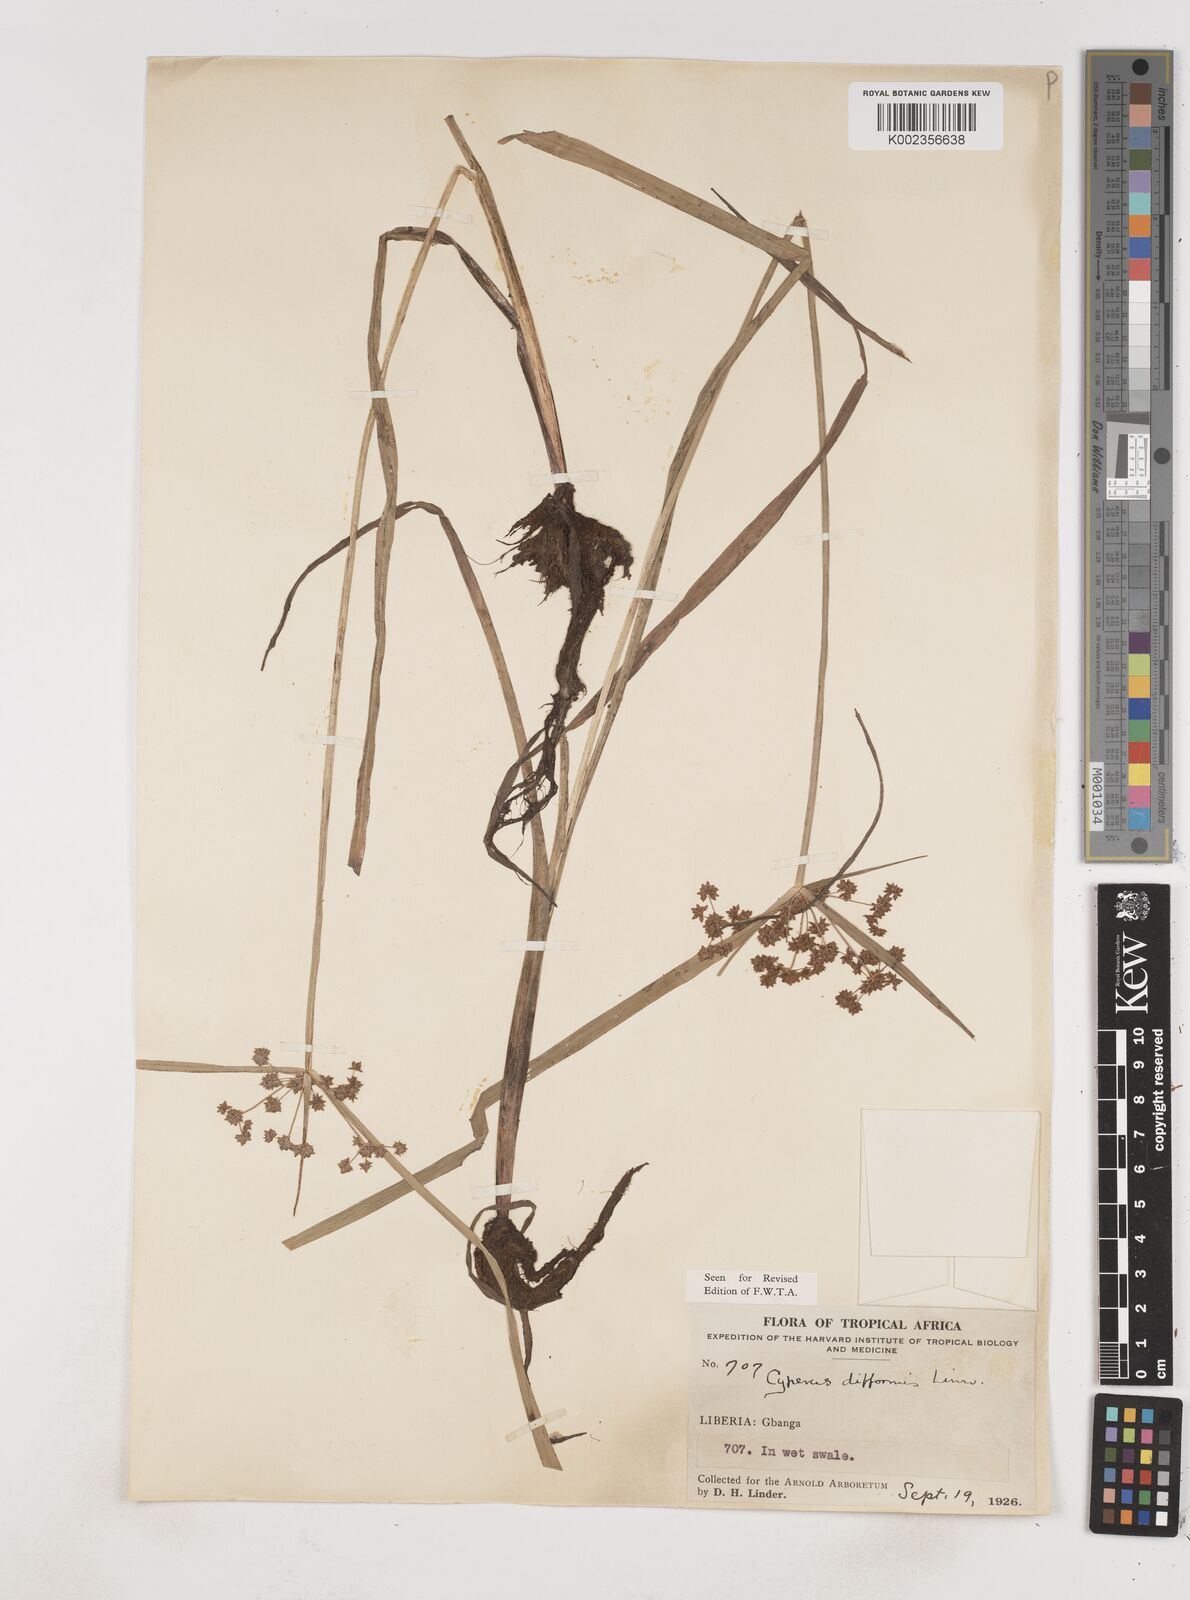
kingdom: Plantae
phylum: Tracheophyta
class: Liliopsida
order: Poales
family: Cyperaceae
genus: Cyperus
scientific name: Cyperus difformis
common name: Variable flatsedge
